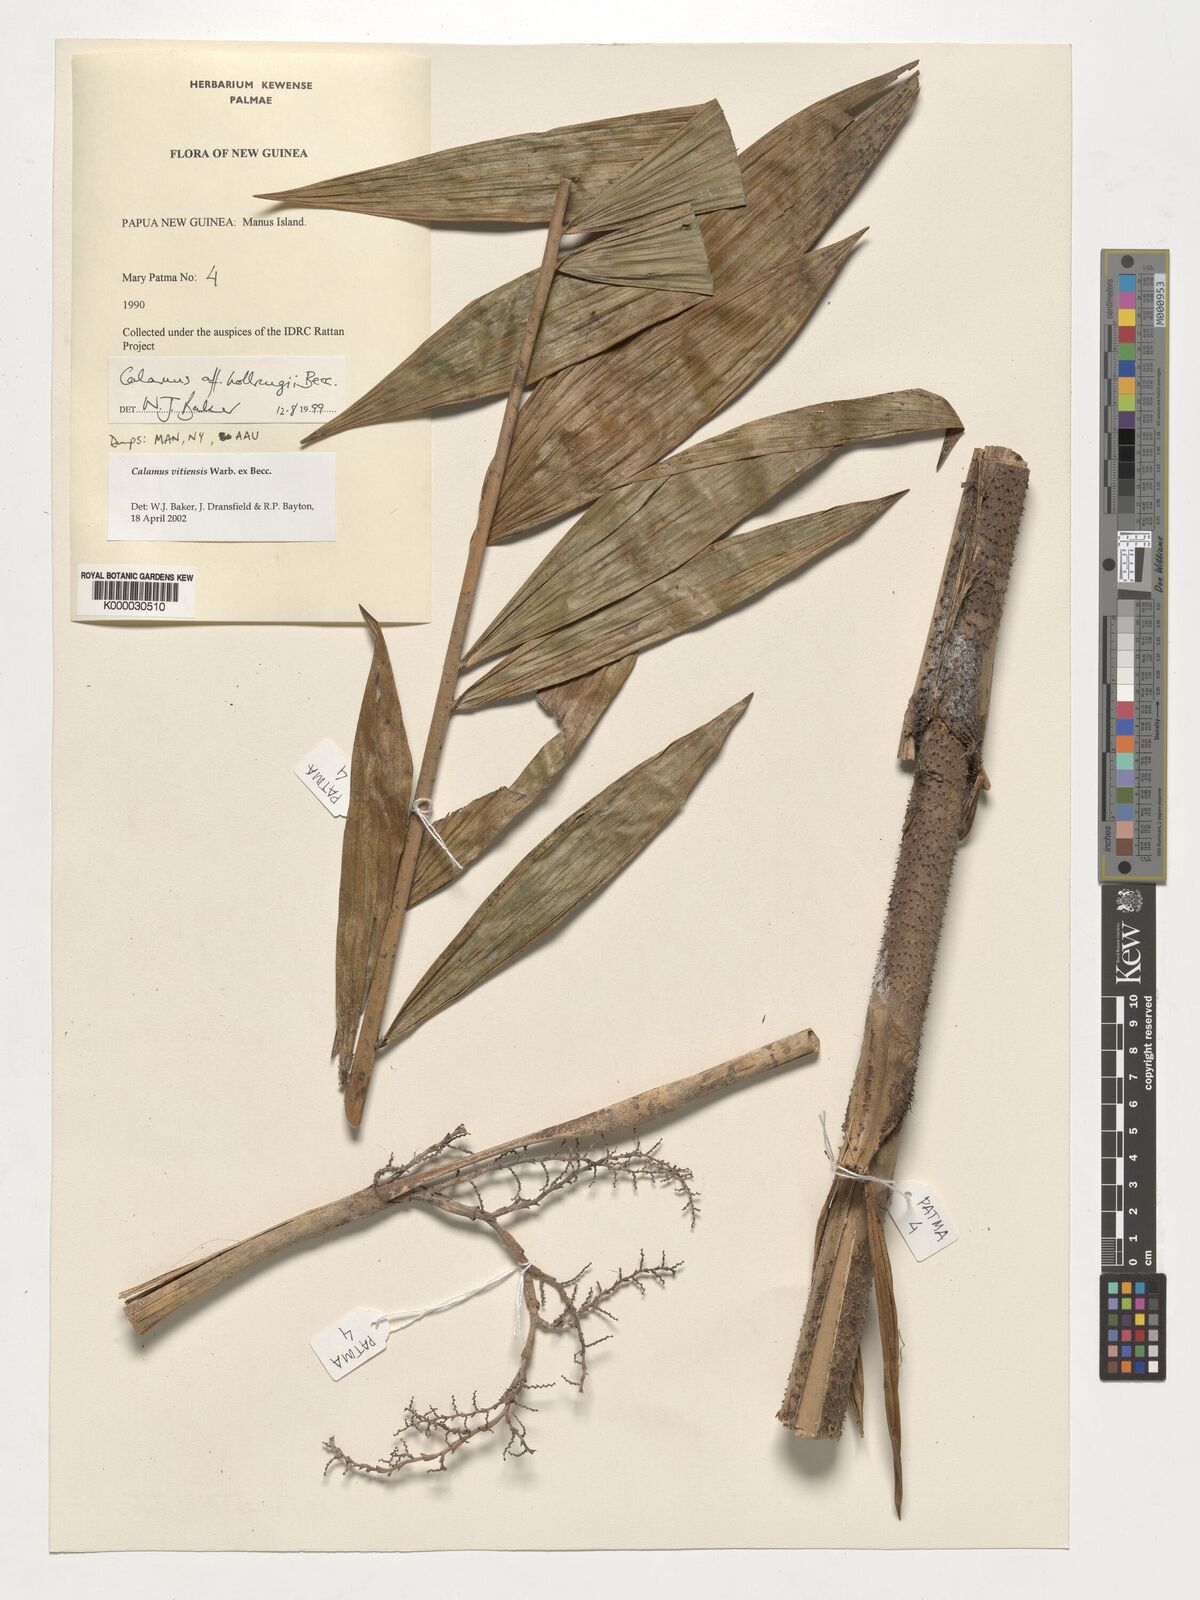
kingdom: Plantae
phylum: Tracheophyta
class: Liliopsida
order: Arecales
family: Arecaceae
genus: Calamus
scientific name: Calamus vitiensis
